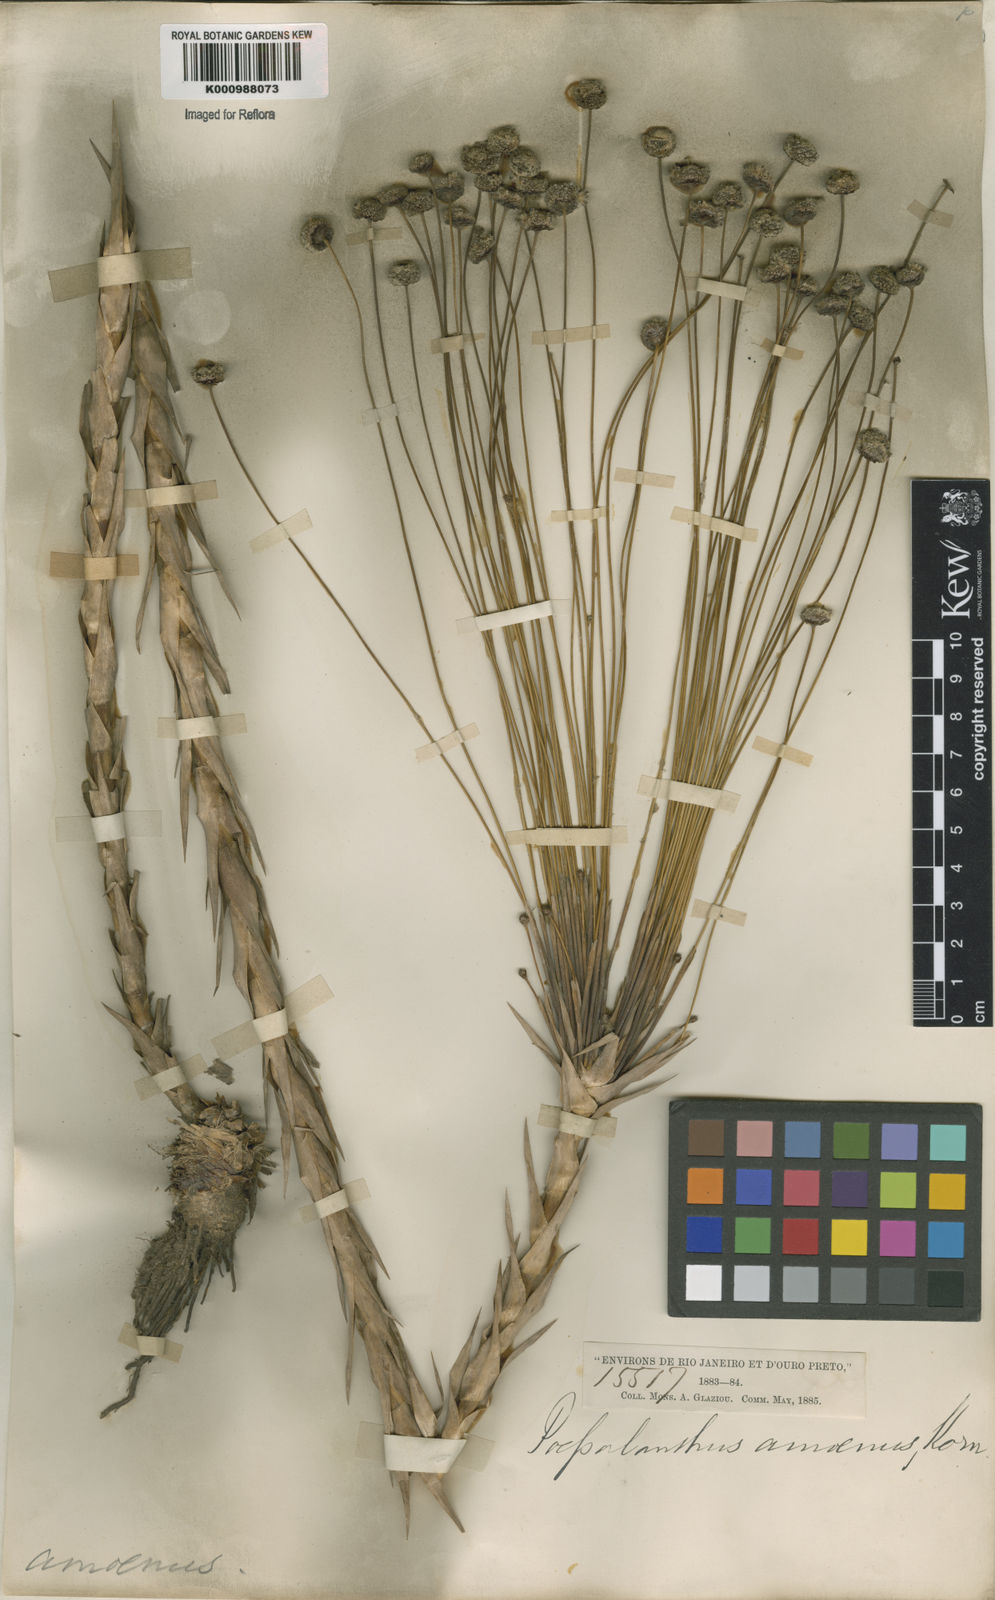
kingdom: Plantae
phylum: Tracheophyta
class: Liliopsida
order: Poales
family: Eriocaulaceae
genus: Paepalanthus
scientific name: Paepalanthus
